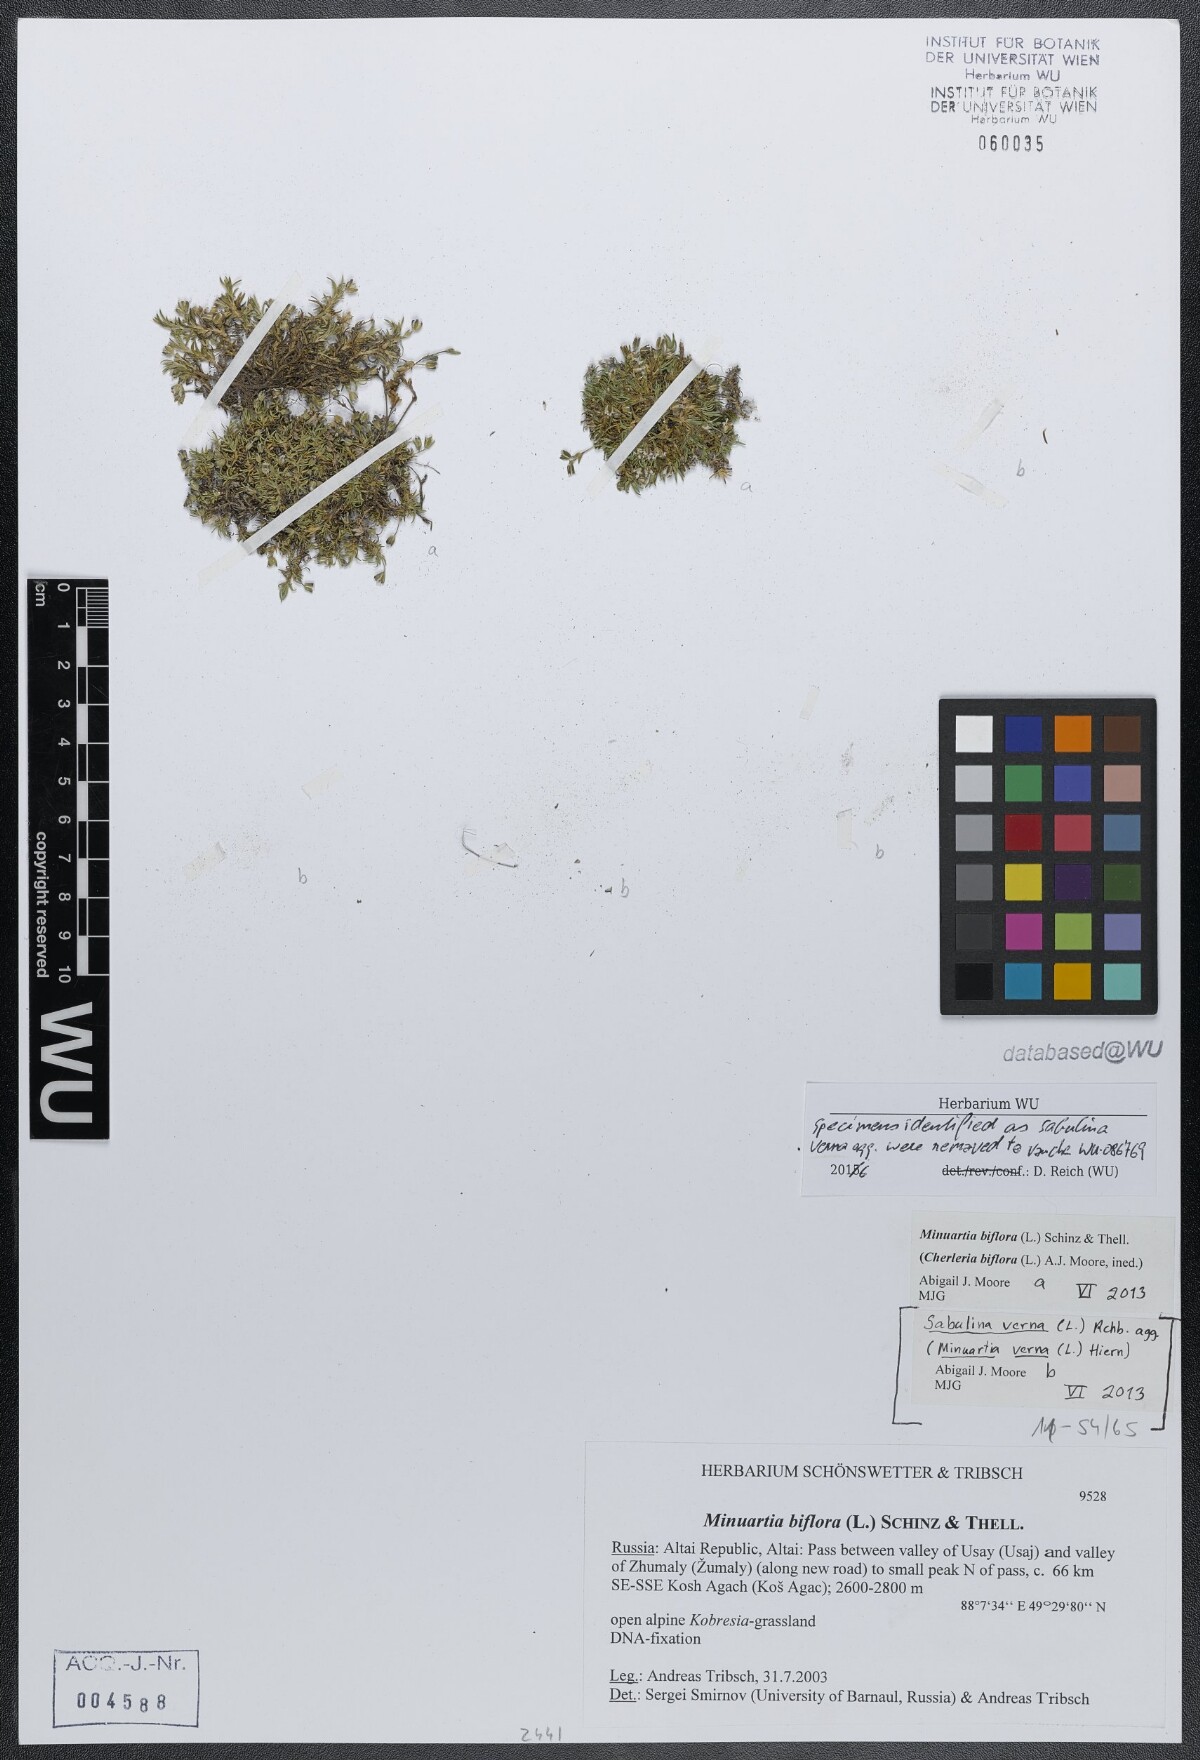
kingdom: Plantae
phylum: Tracheophyta
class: Magnoliopsida
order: Caryophyllales
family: Caryophyllaceae
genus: Cherleria
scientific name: Cherleria biflora
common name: Mountain sandwort
